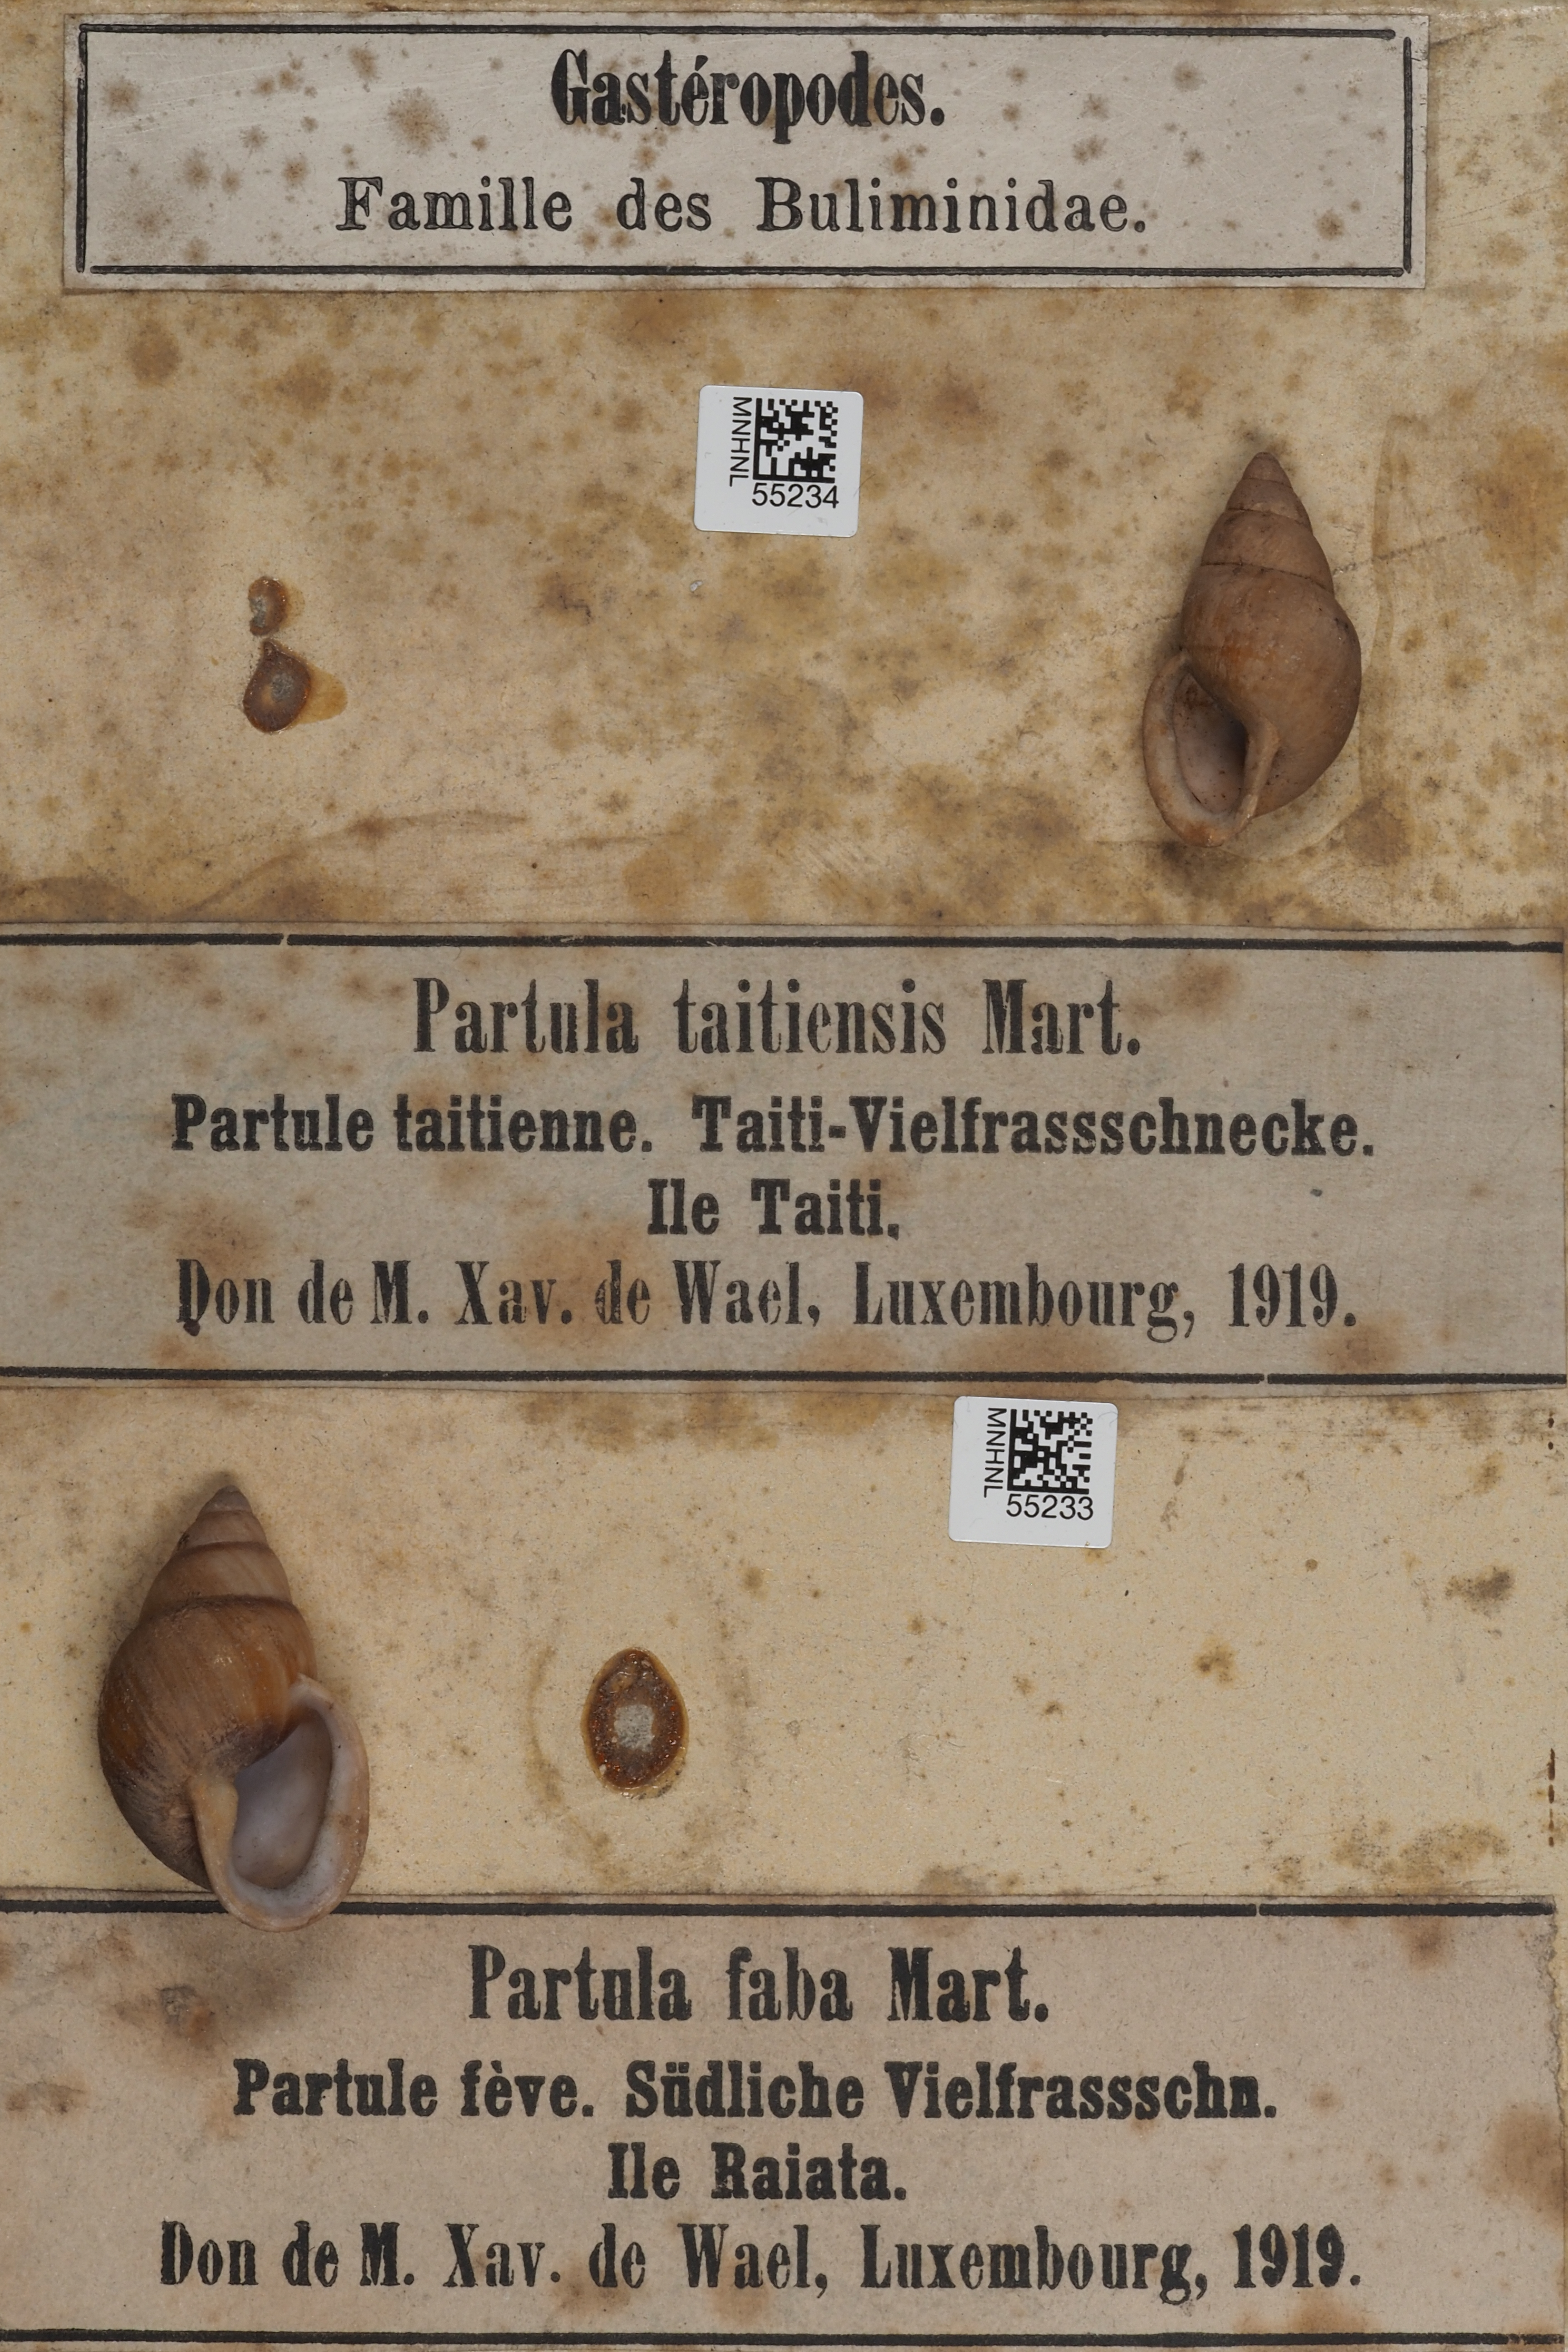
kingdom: Animalia
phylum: Mollusca
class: Gastropoda
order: Stylommatophora
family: Partulidae
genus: Partula
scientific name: Partula faba
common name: Captain cook's bean snail
